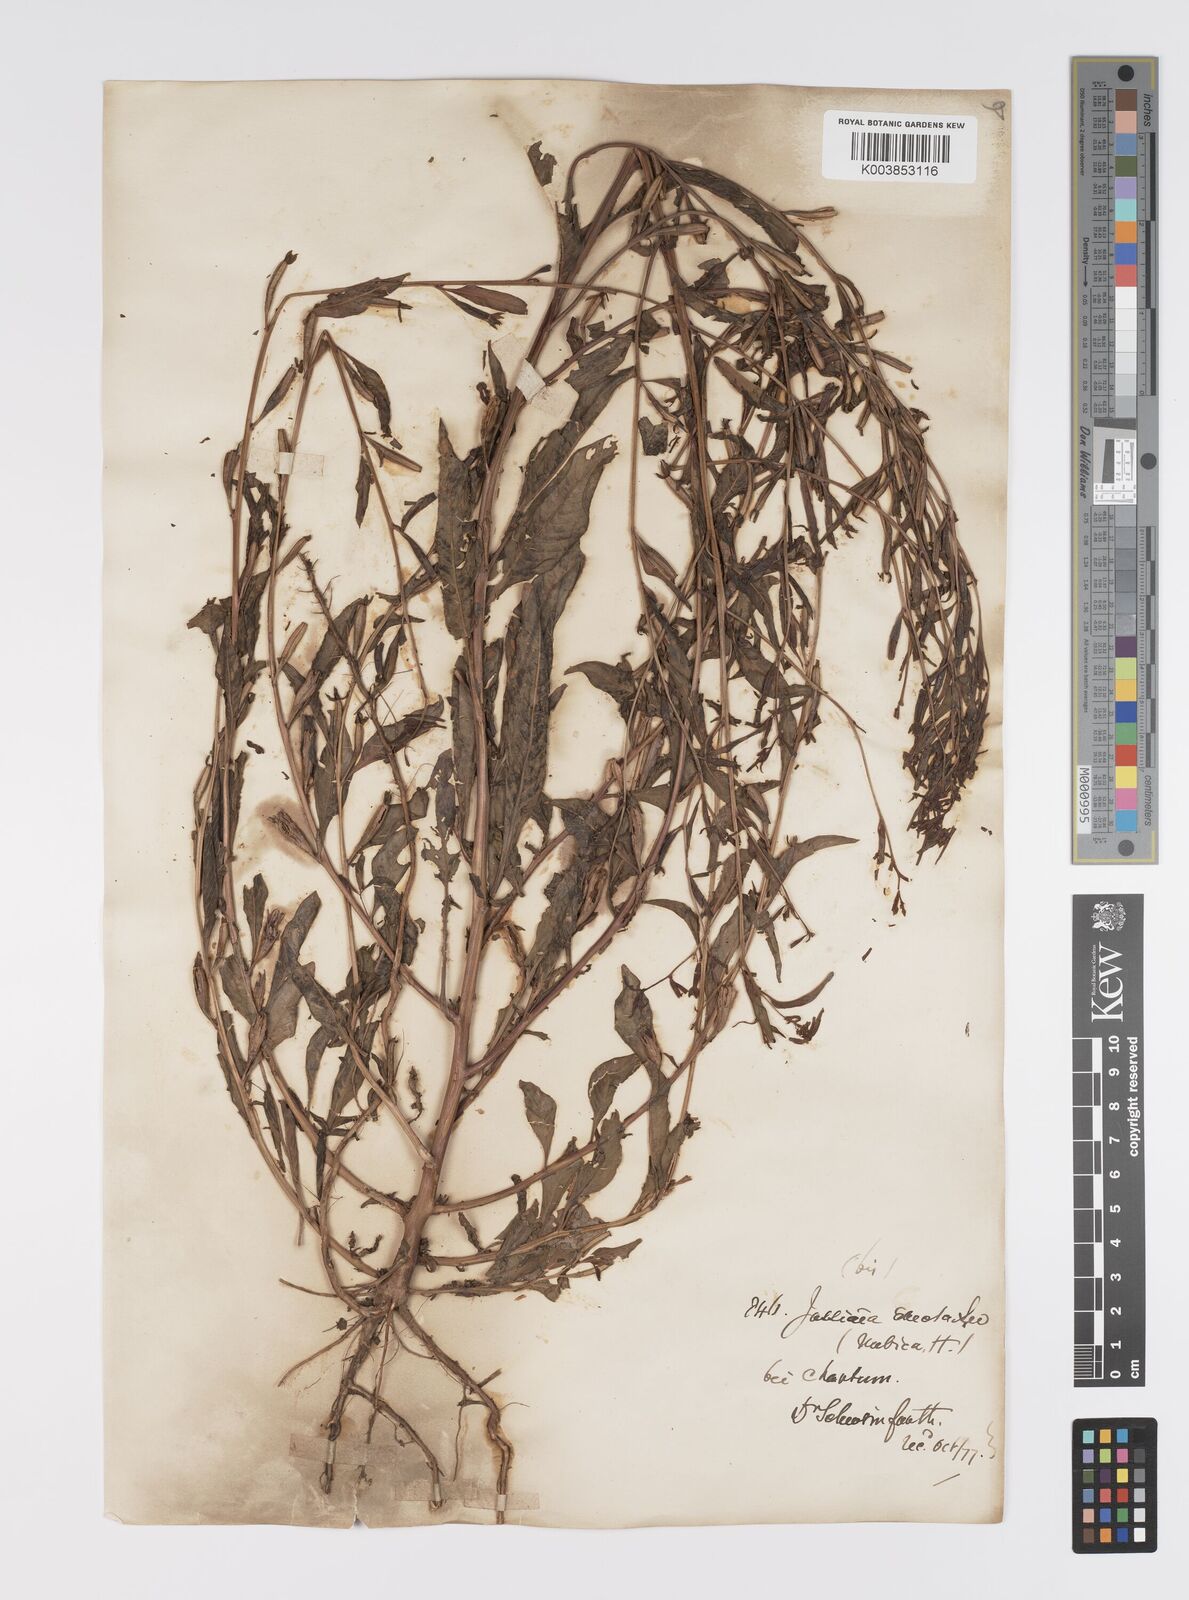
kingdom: Plantae
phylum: Tracheophyta
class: Magnoliopsida
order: Myrtales
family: Onagraceae
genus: Ludwigia
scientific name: Ludwigia erecta
